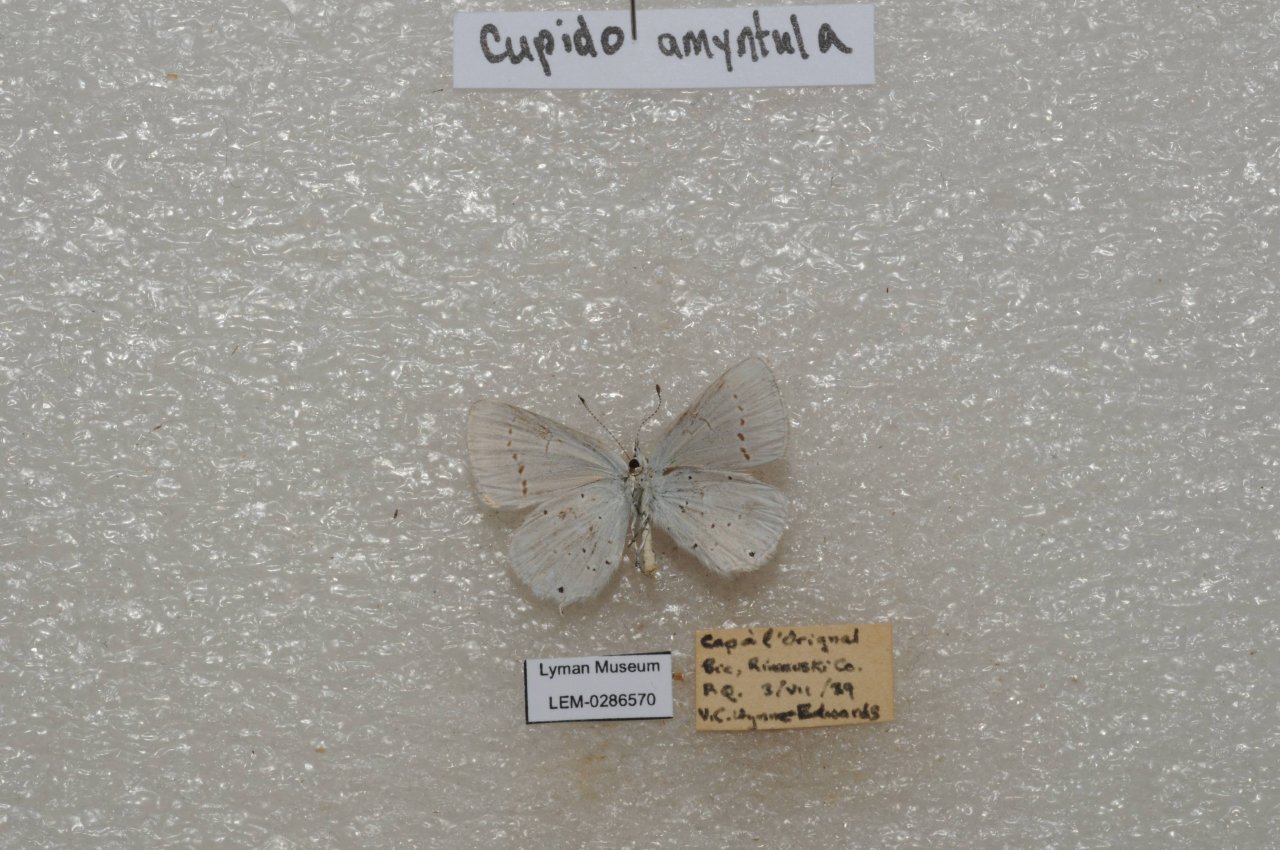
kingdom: Animalia
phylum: Arthropoda
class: Insecta
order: Lepidoptera
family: Lycaenidae
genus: Elkalyce
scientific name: Elkalyce amyntula
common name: Western Tailed-Blue
